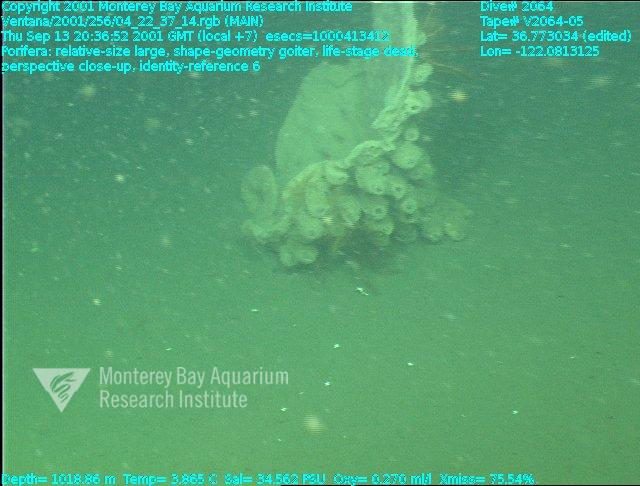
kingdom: Animalia
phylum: Porifera
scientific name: Porifera
